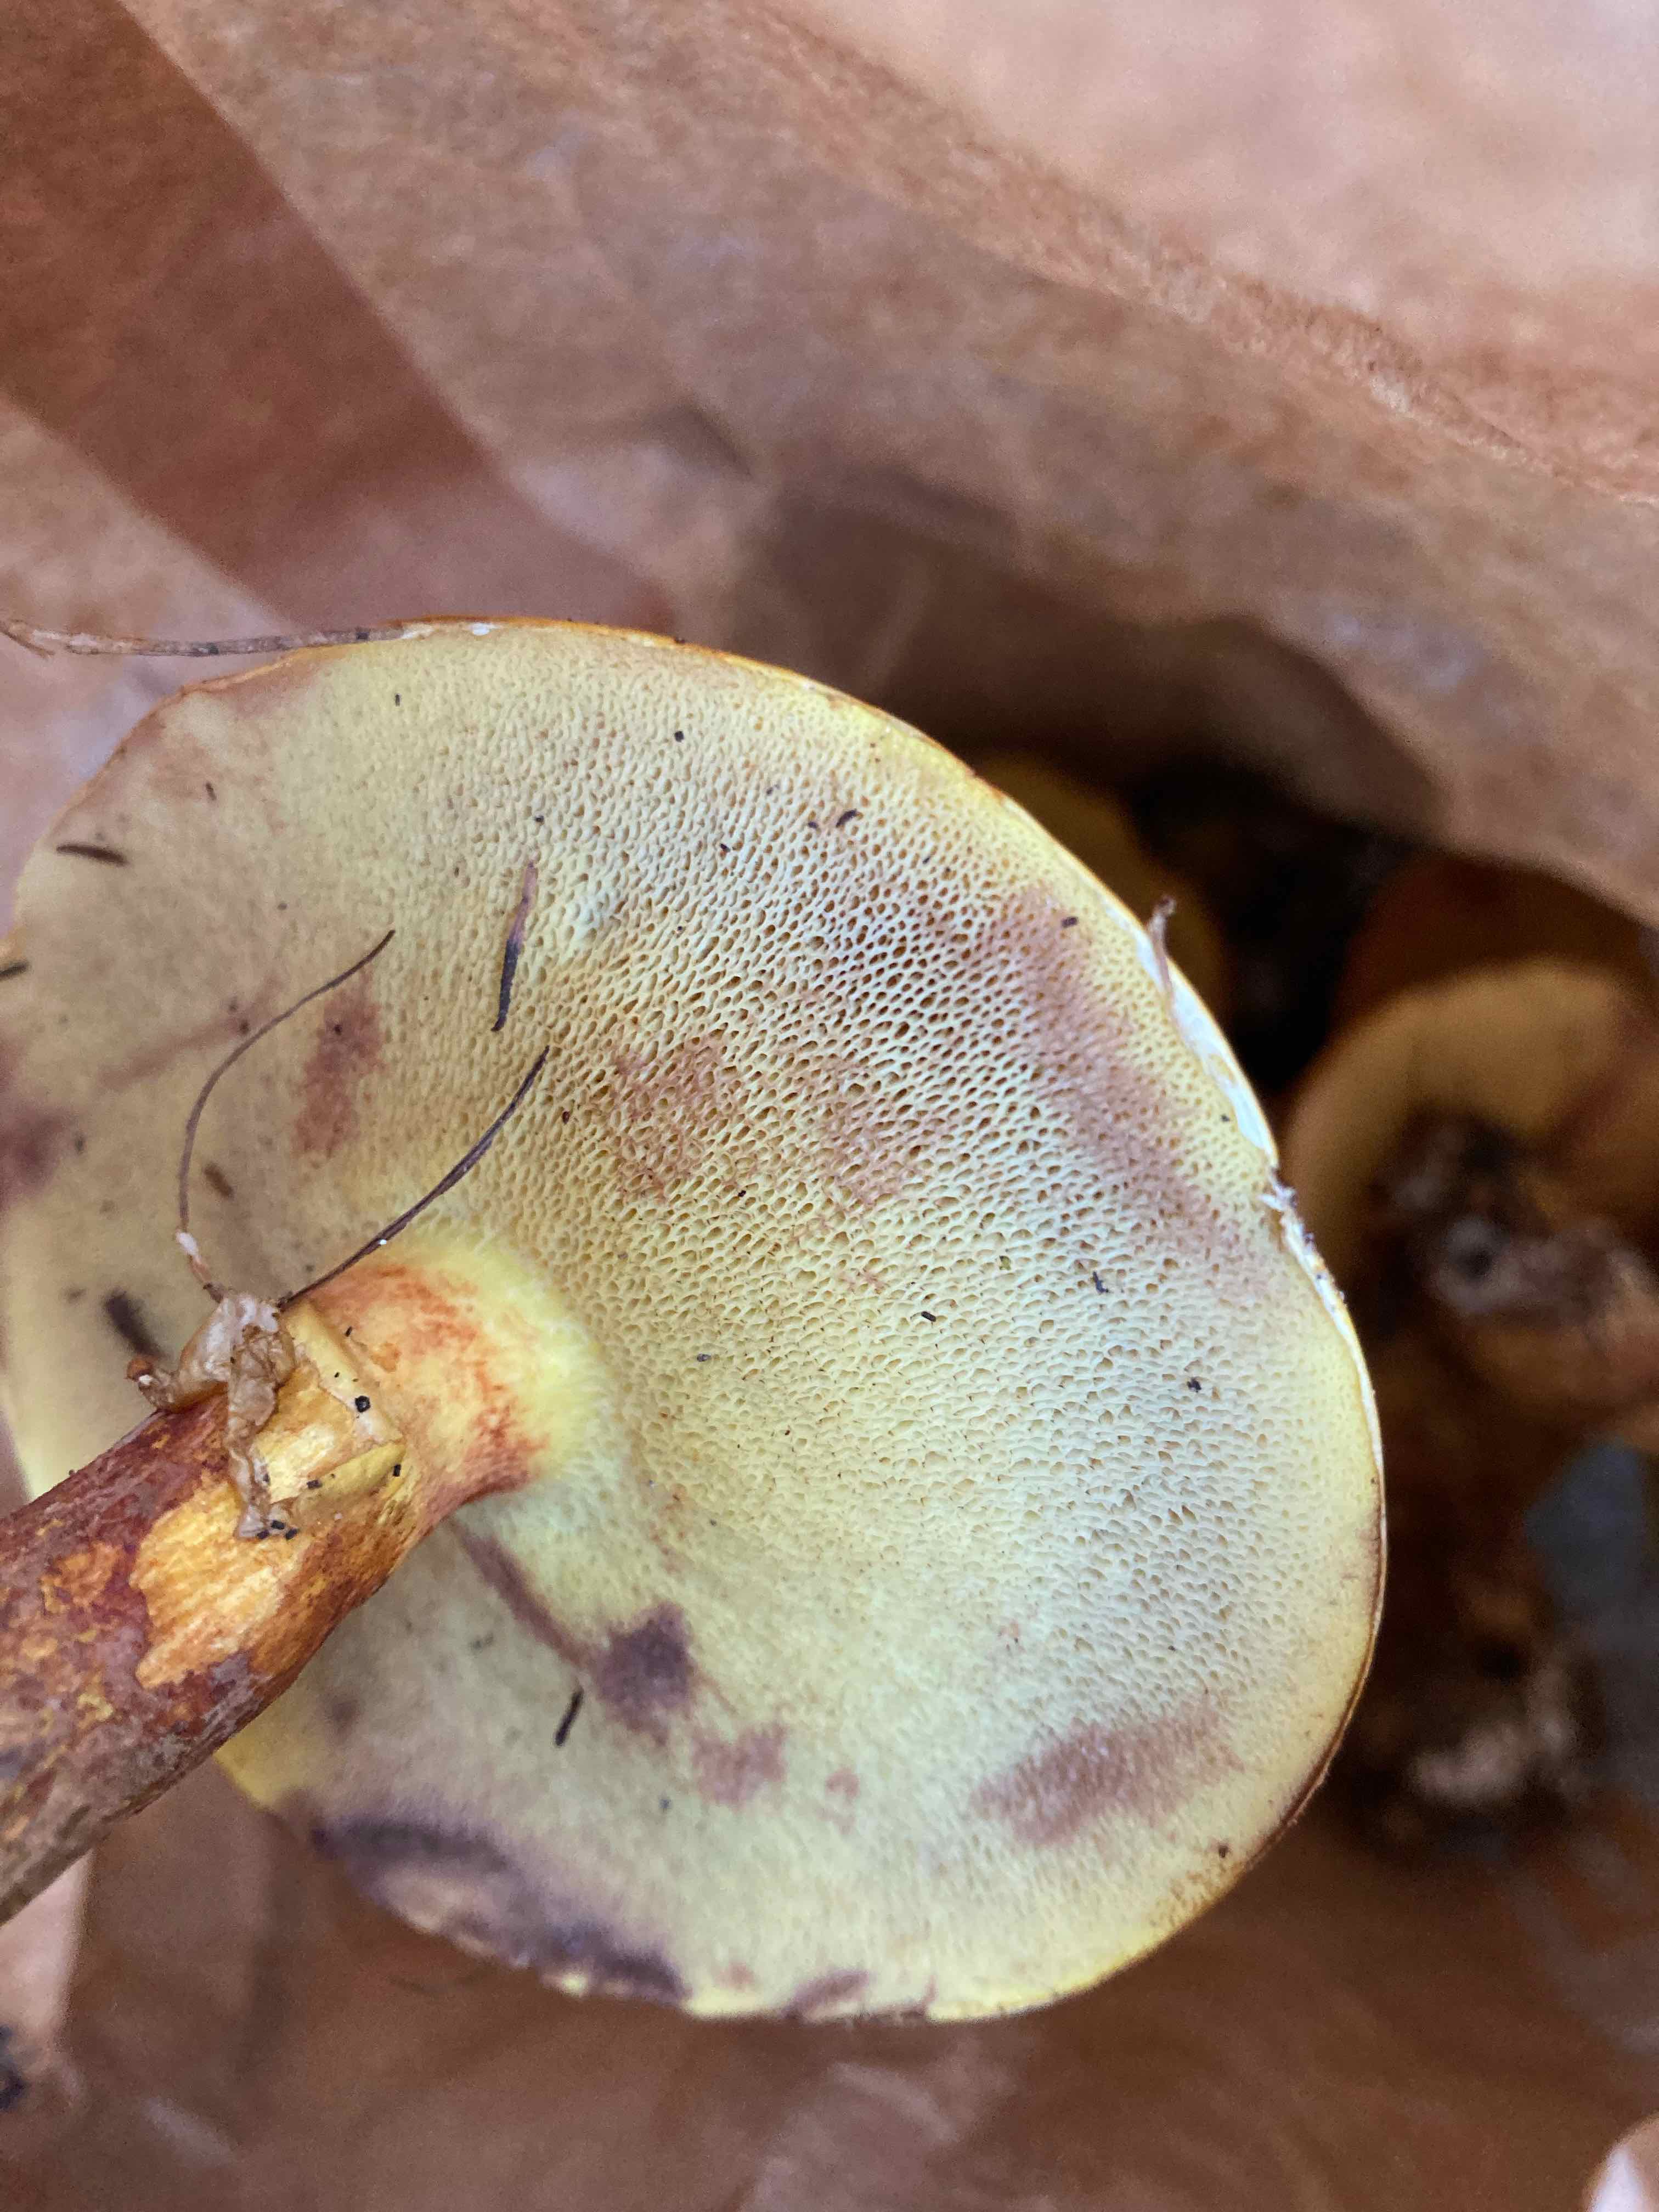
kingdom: Fungi
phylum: Basidiomycota
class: Agaricomycetes
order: Boletales
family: Suillaceae
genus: Suillus
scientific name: Suillus grevillei
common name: lærke-slimrørhat
